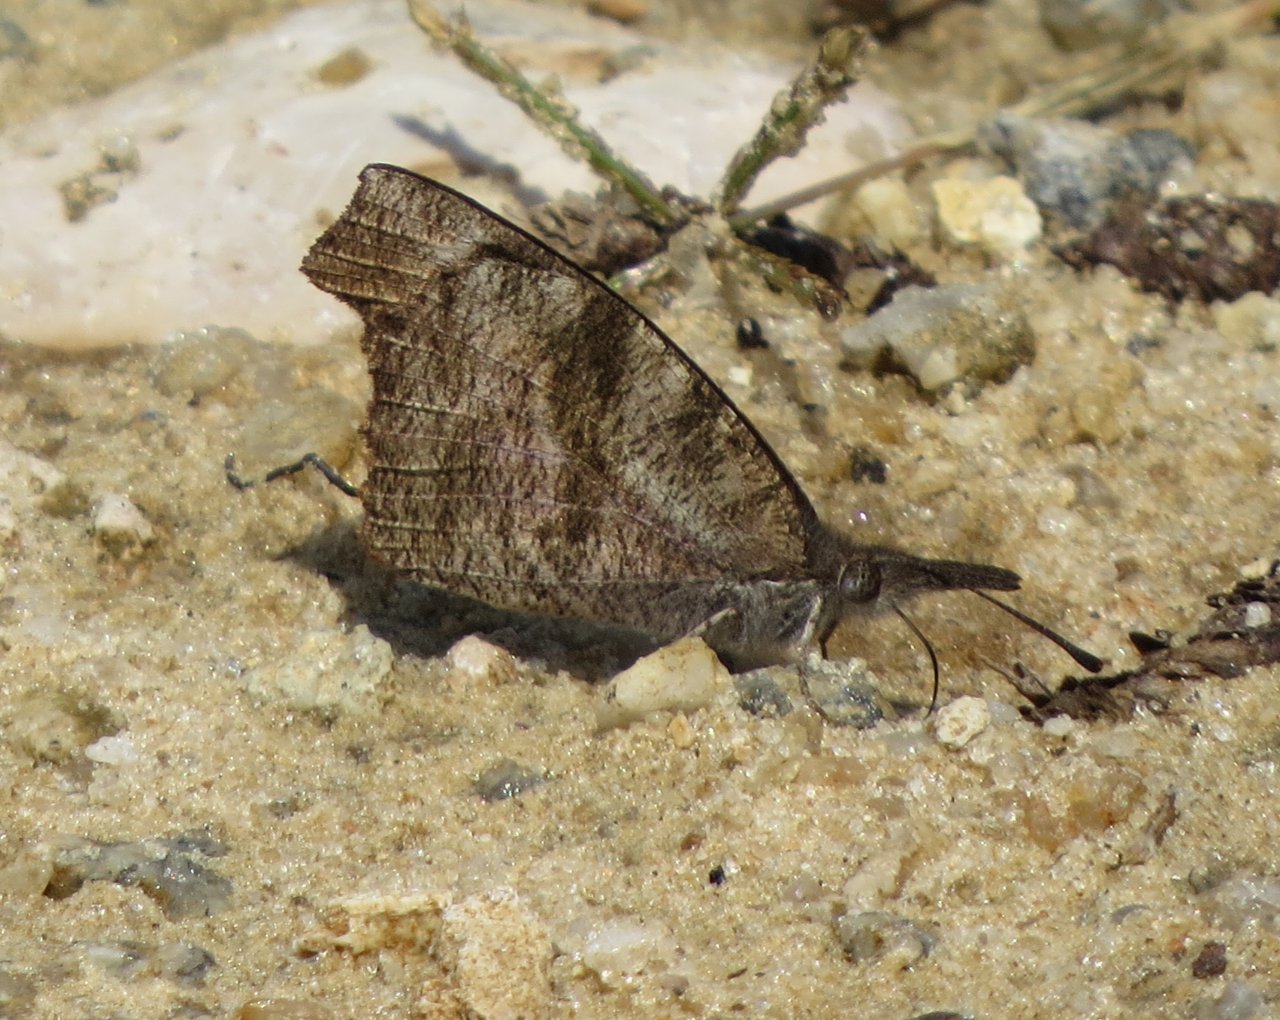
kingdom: Animalia
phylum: Arthropoda
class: Insecta
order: Lepidoptera
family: Nymphalidae
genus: Libytheana
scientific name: Libytheana carinenta
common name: American Snout
